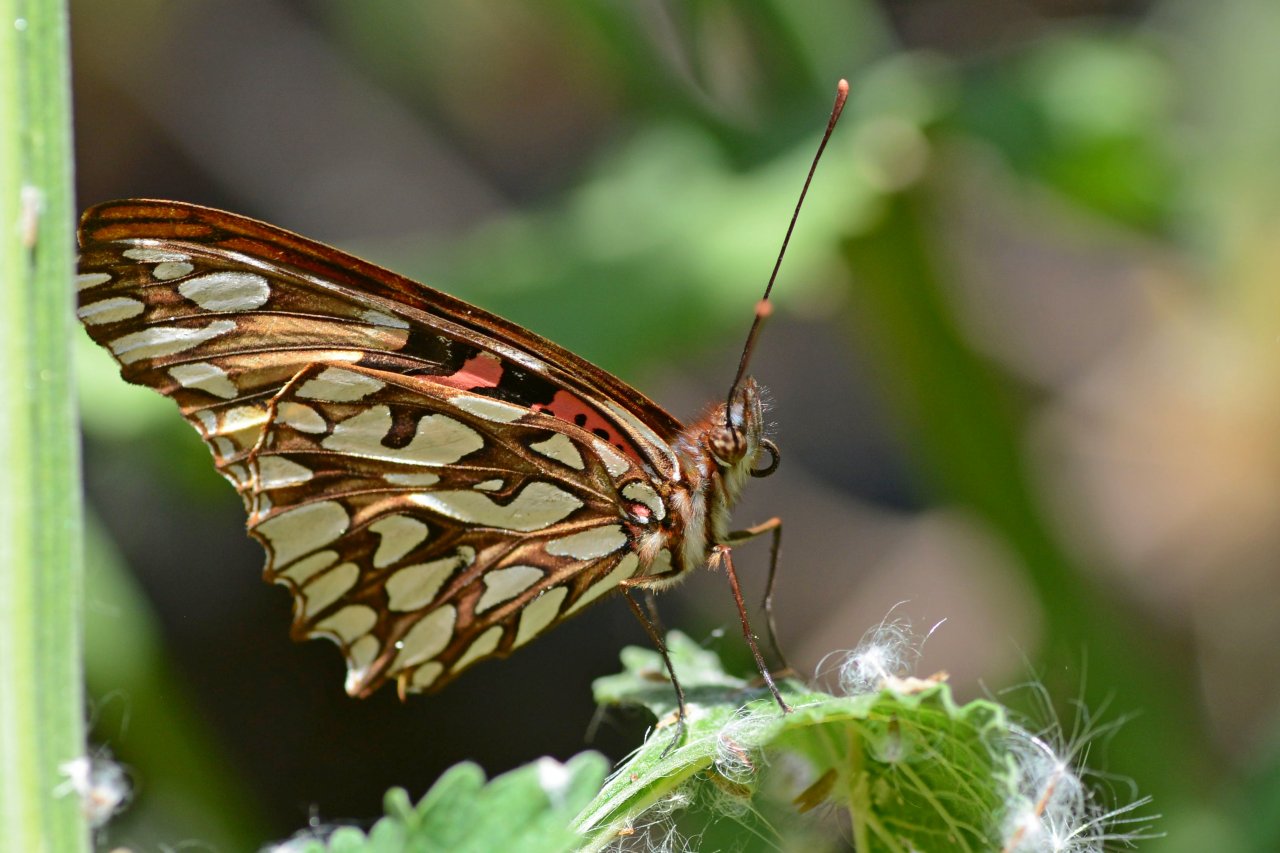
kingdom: Animalia
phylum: Arthropoda
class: Insecta
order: Lepidoptera
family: Nymphalidae
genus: Dione
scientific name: Dione moneta
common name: Mexican Silverspot
